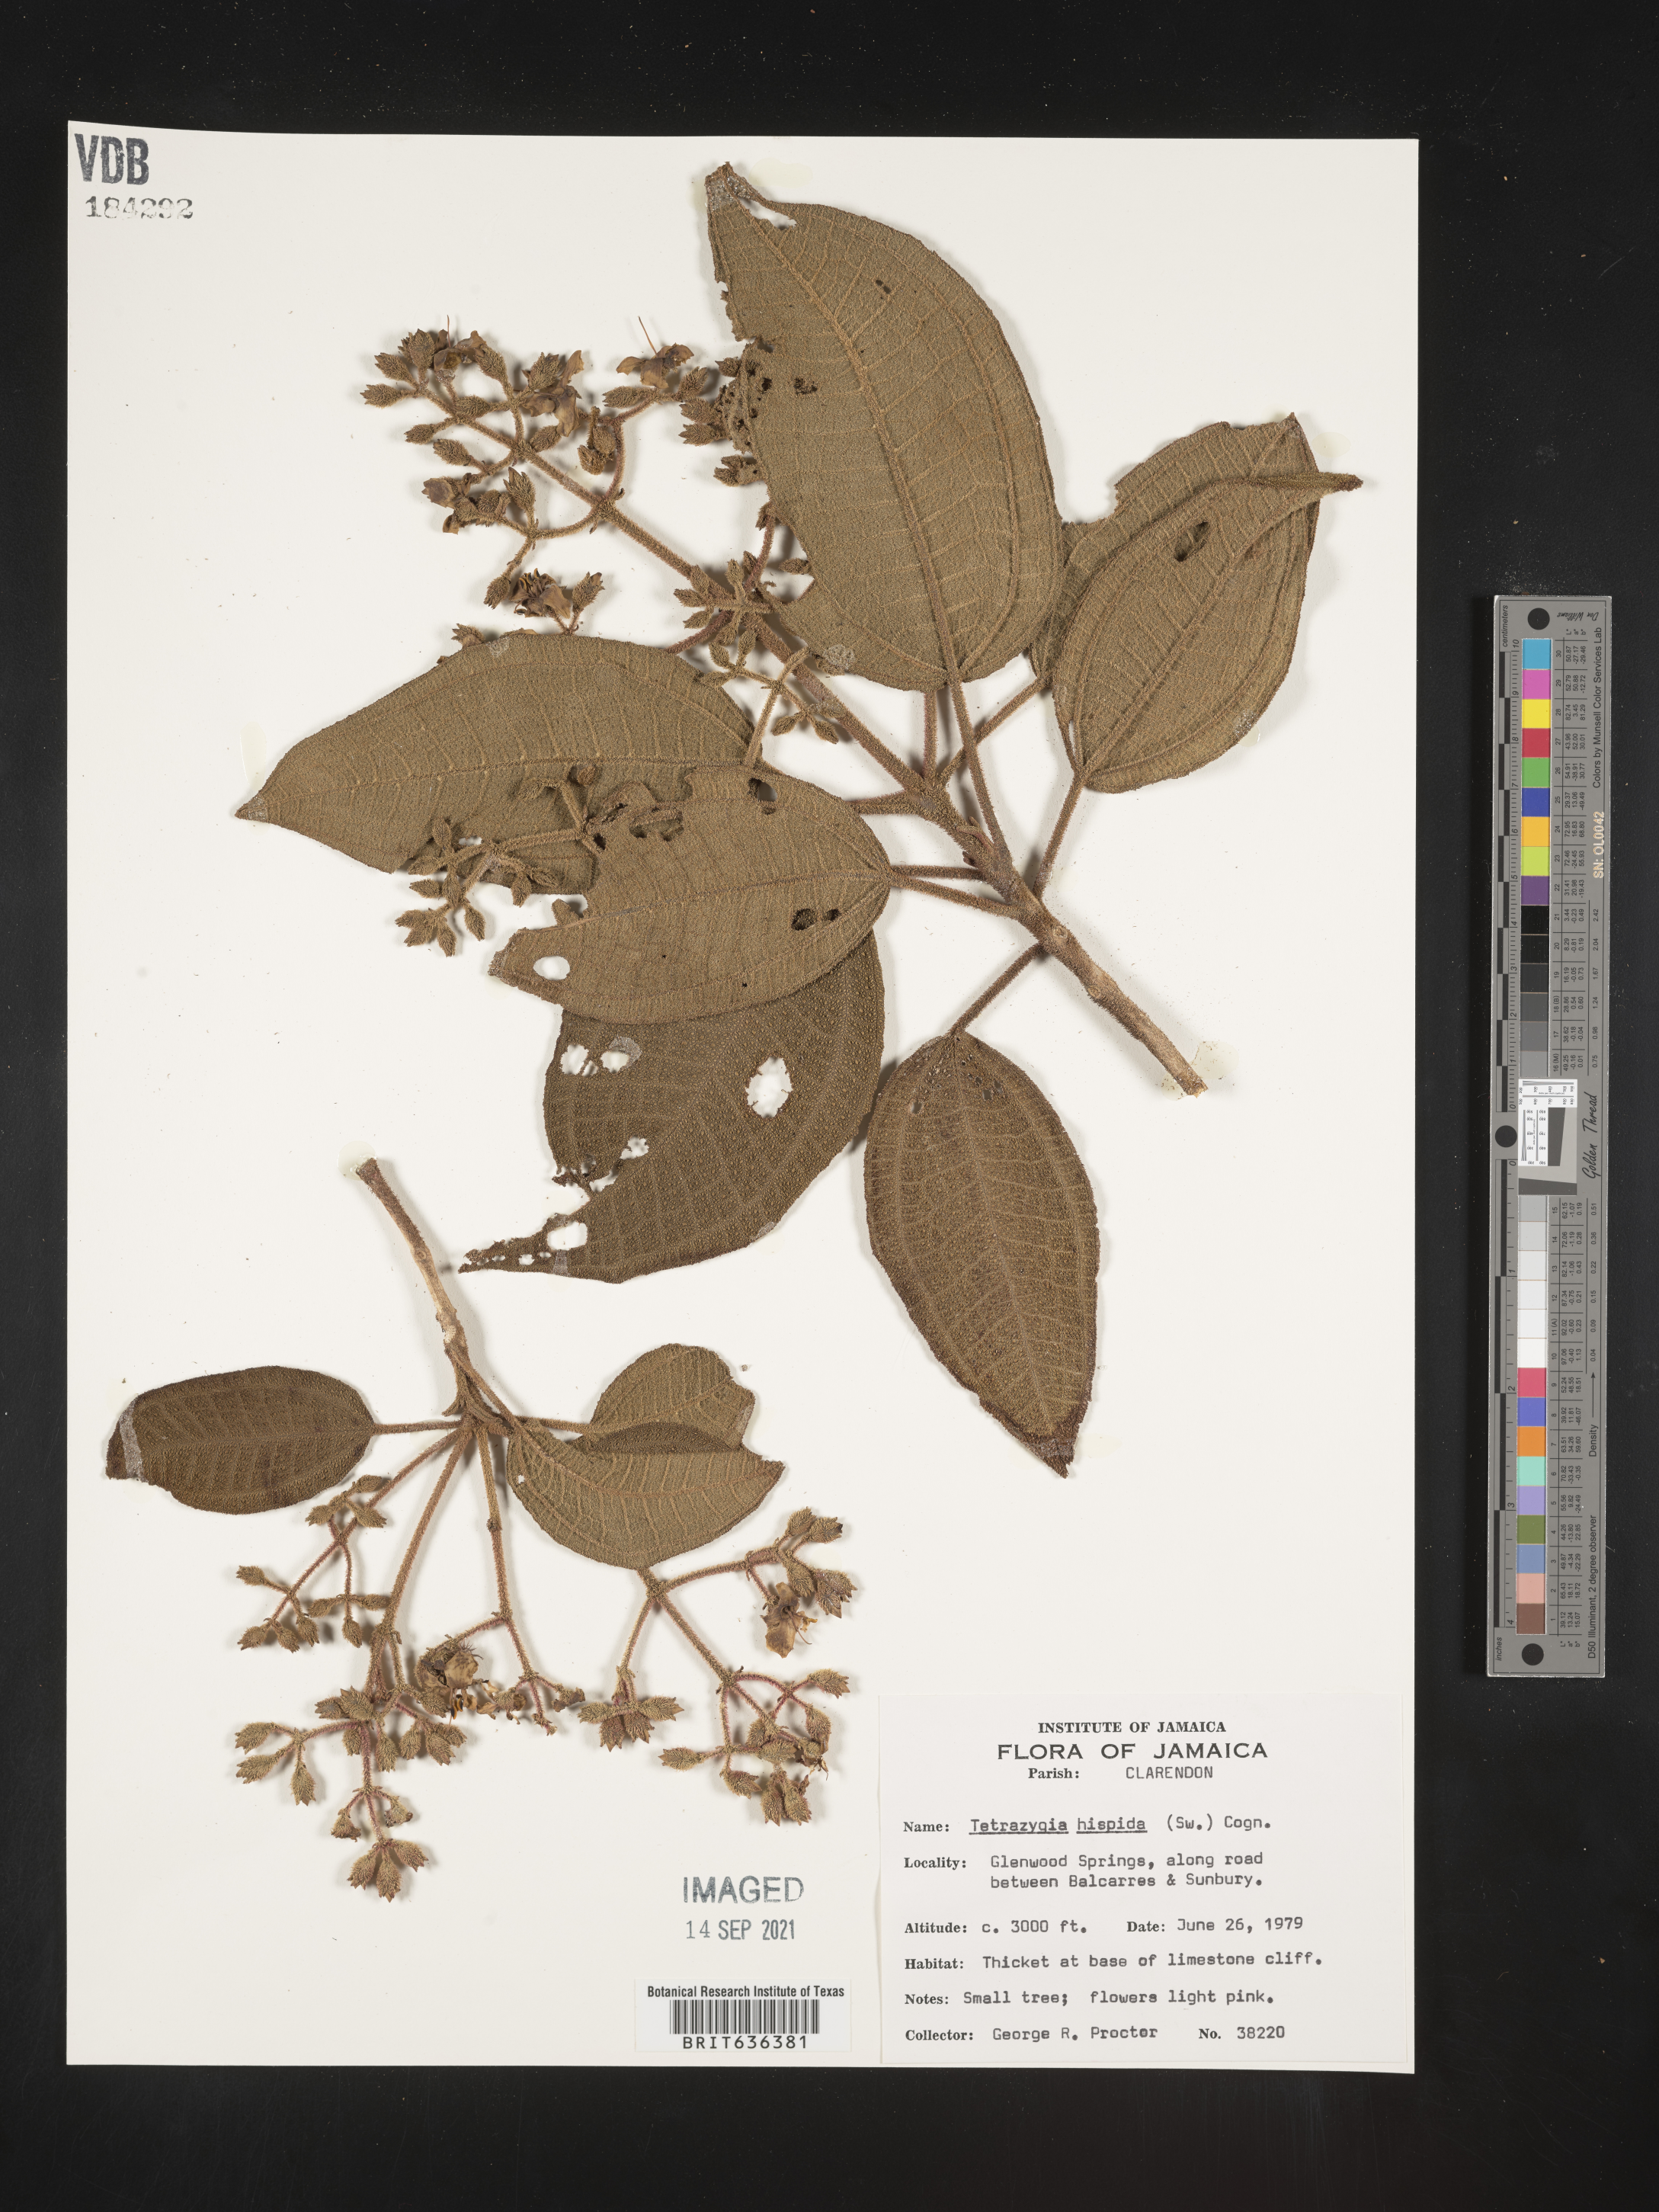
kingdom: Plantae
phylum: Tracheophyta
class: Magnoliopsida
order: Myrtales
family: Melastomataceae
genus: Miconia
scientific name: Miconia
